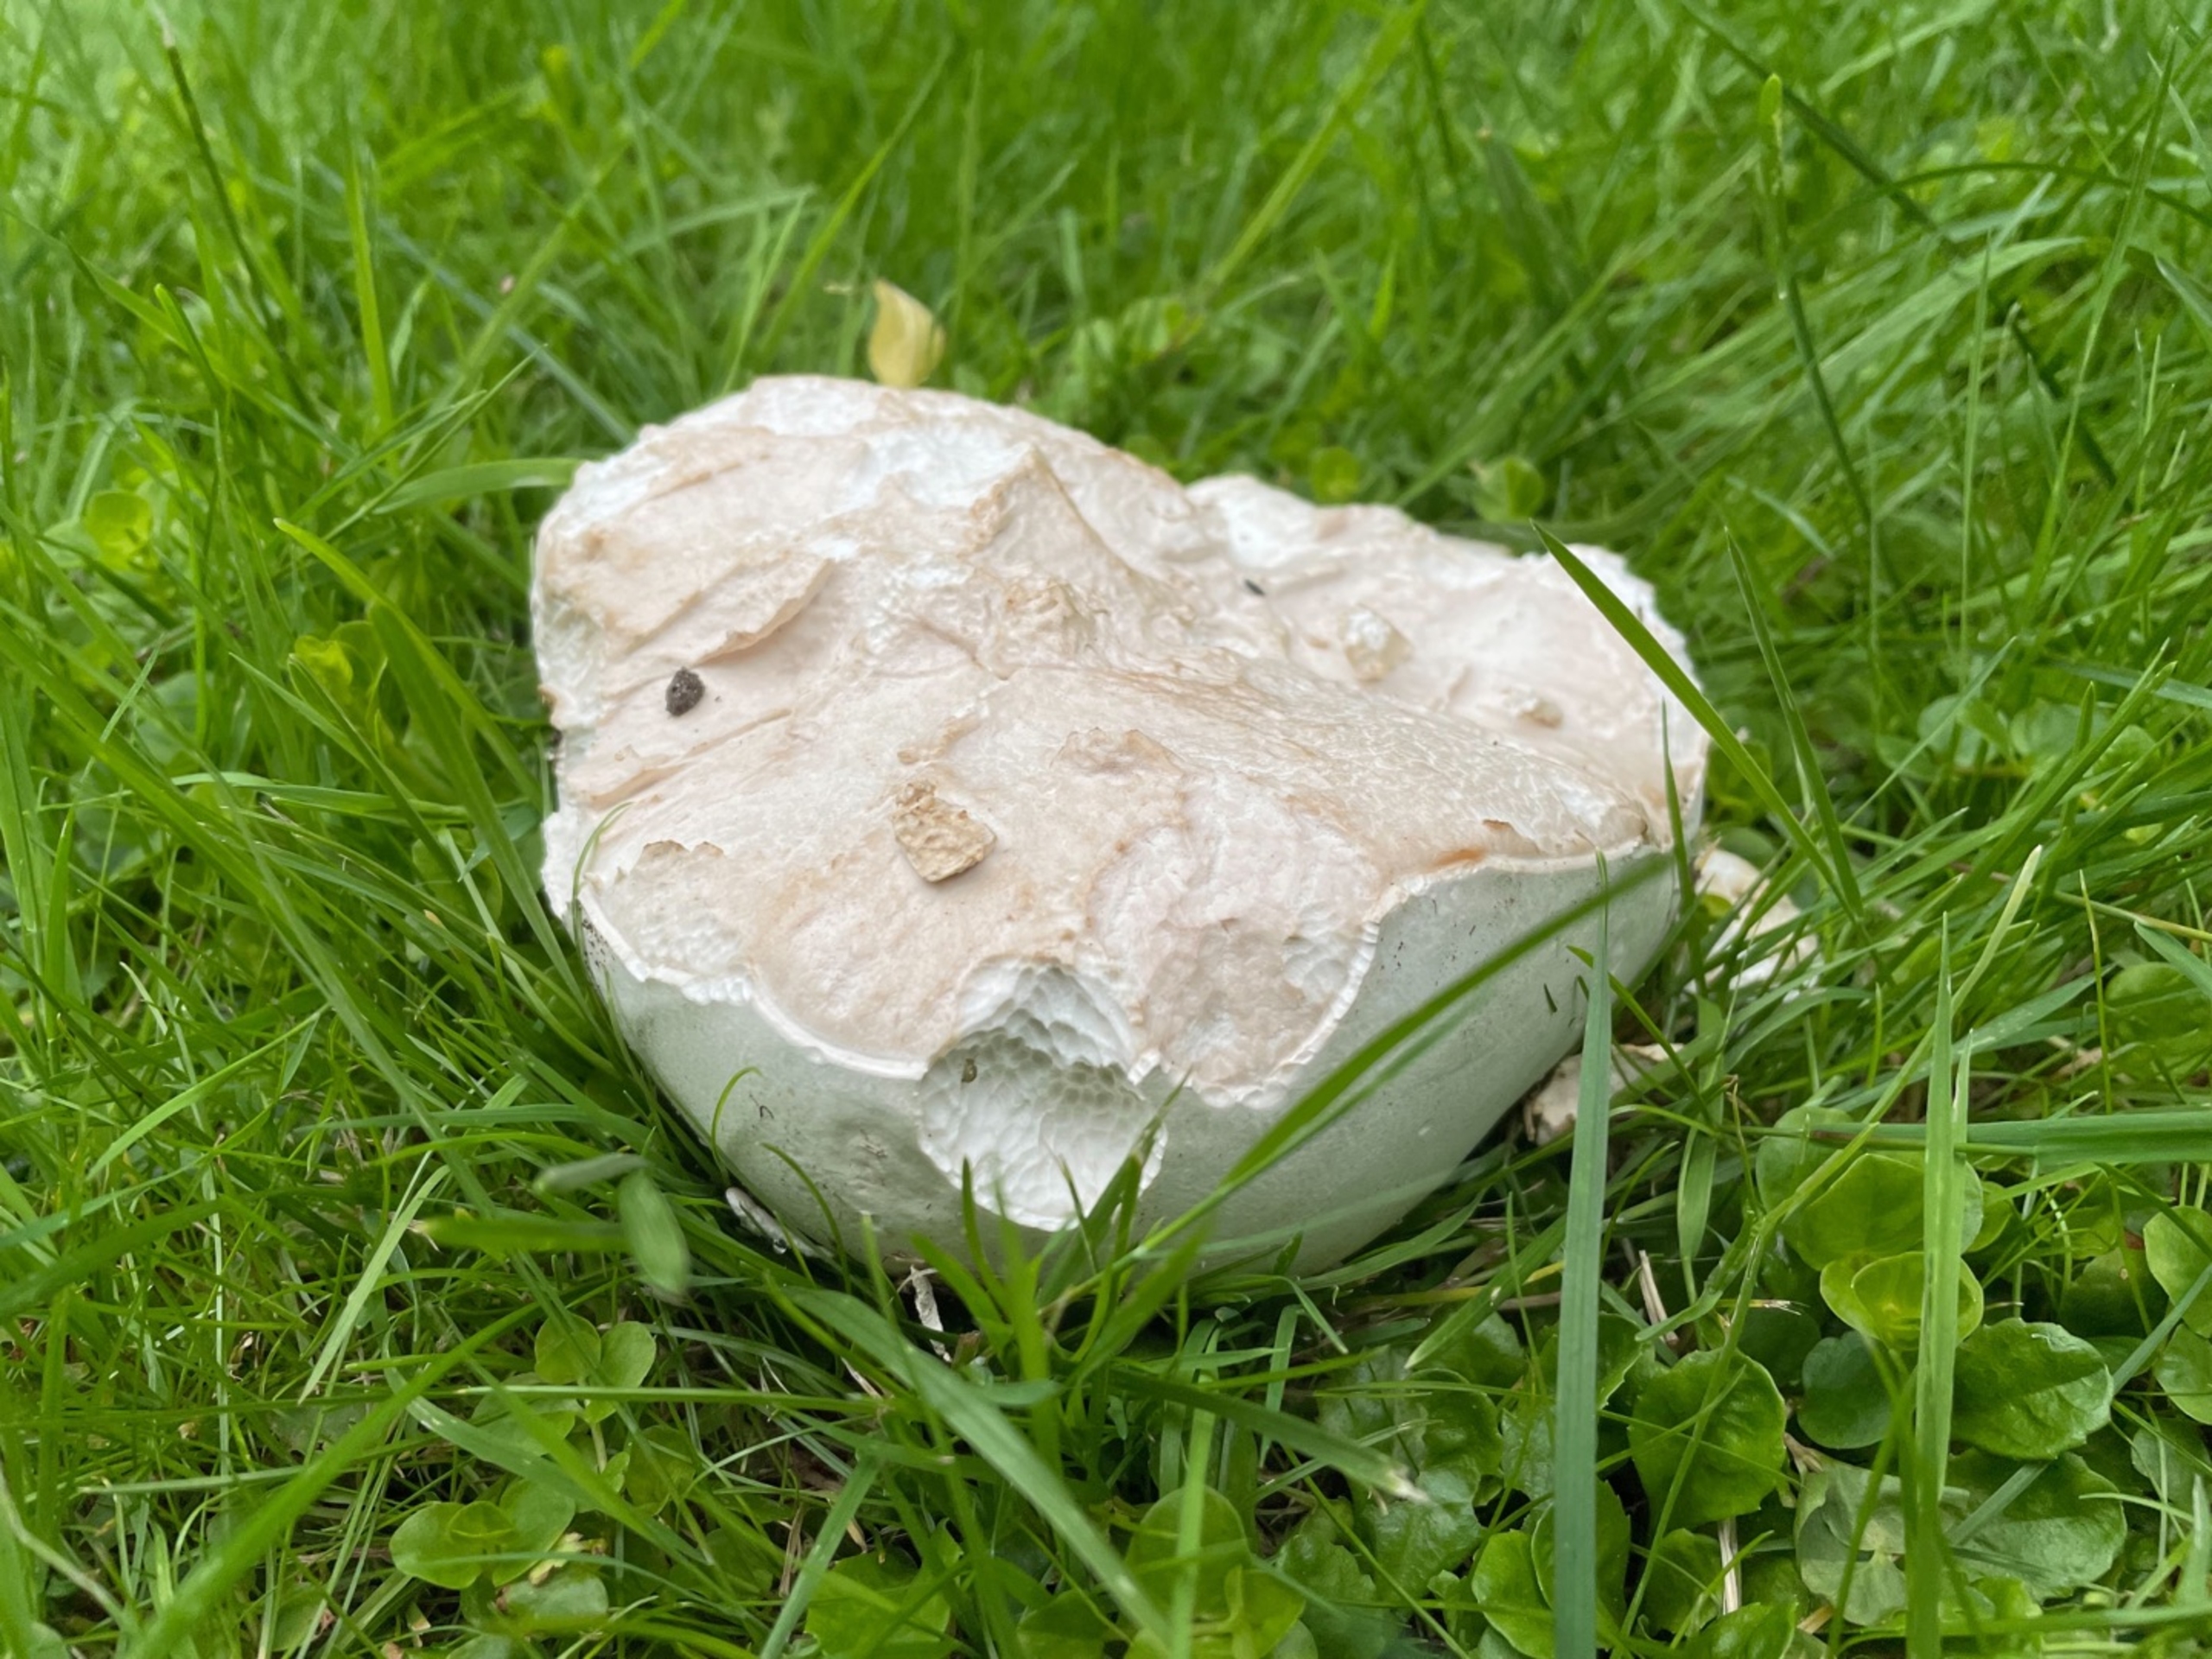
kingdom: Fungi
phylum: Basidiomycota
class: Agaricomycetes
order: Agaricales
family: Lycoperdaceae
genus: Calvatia
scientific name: Calvatia gigantea
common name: Kæmpestøvbold
